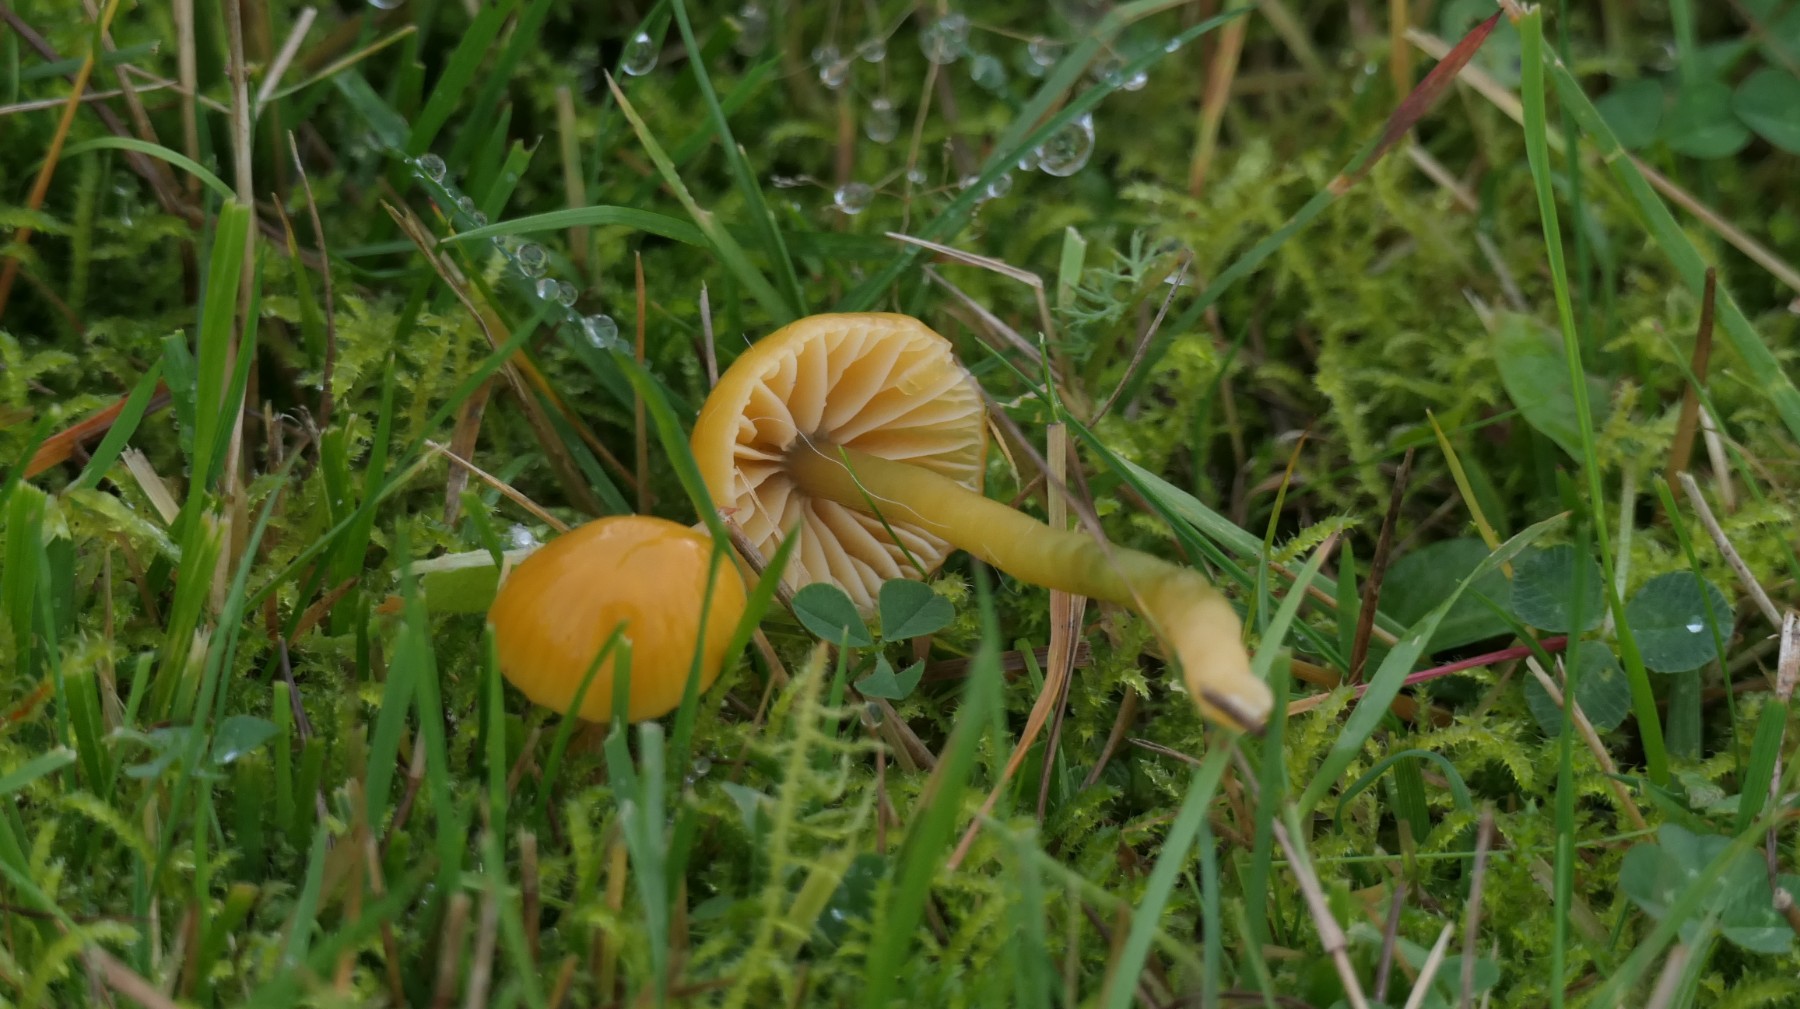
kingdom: Fungi
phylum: Basidiomycota
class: Agaricomycetes
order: Agaricales
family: Hygrophoraceae
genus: Gliophorus
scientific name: Gliophorus psittacinus
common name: papegøje-vokshat
